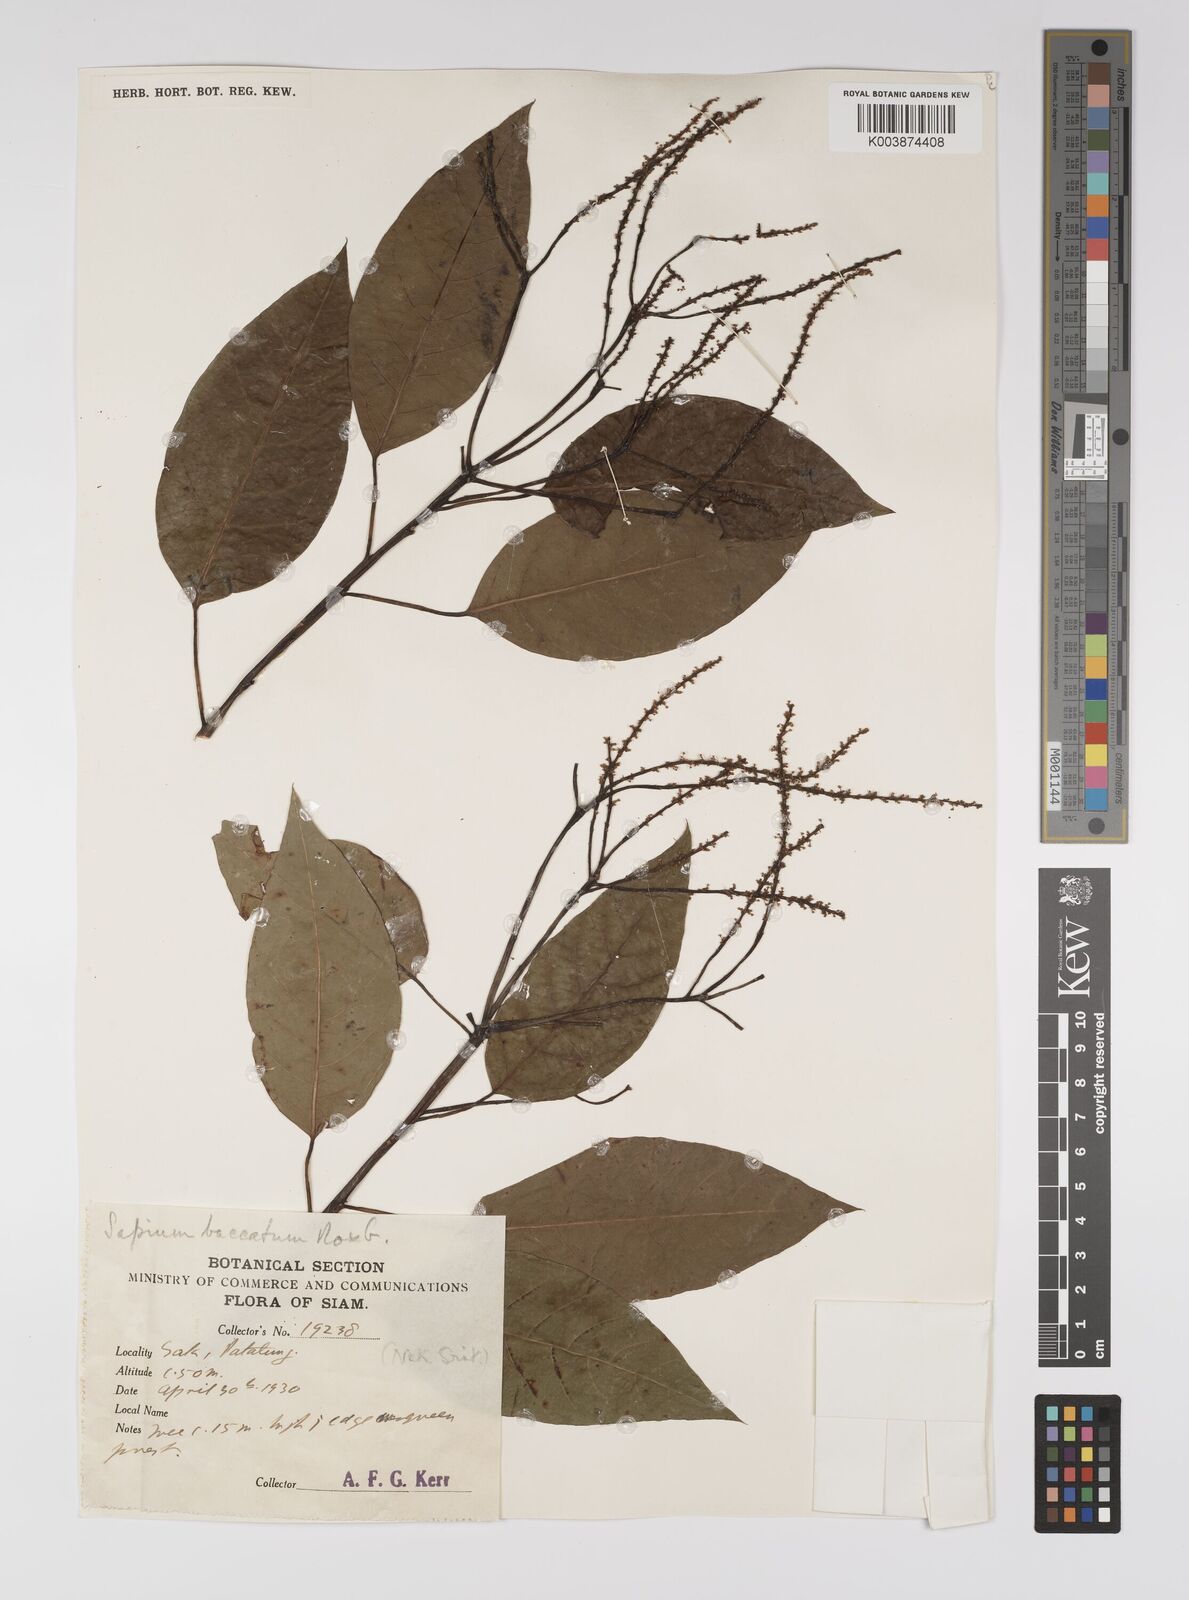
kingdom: Plantae
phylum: Tracheophyta
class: Magnoliopsida
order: Malpighiales
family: Euphorbiaceae
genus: Balakata
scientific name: Balakata baccata
